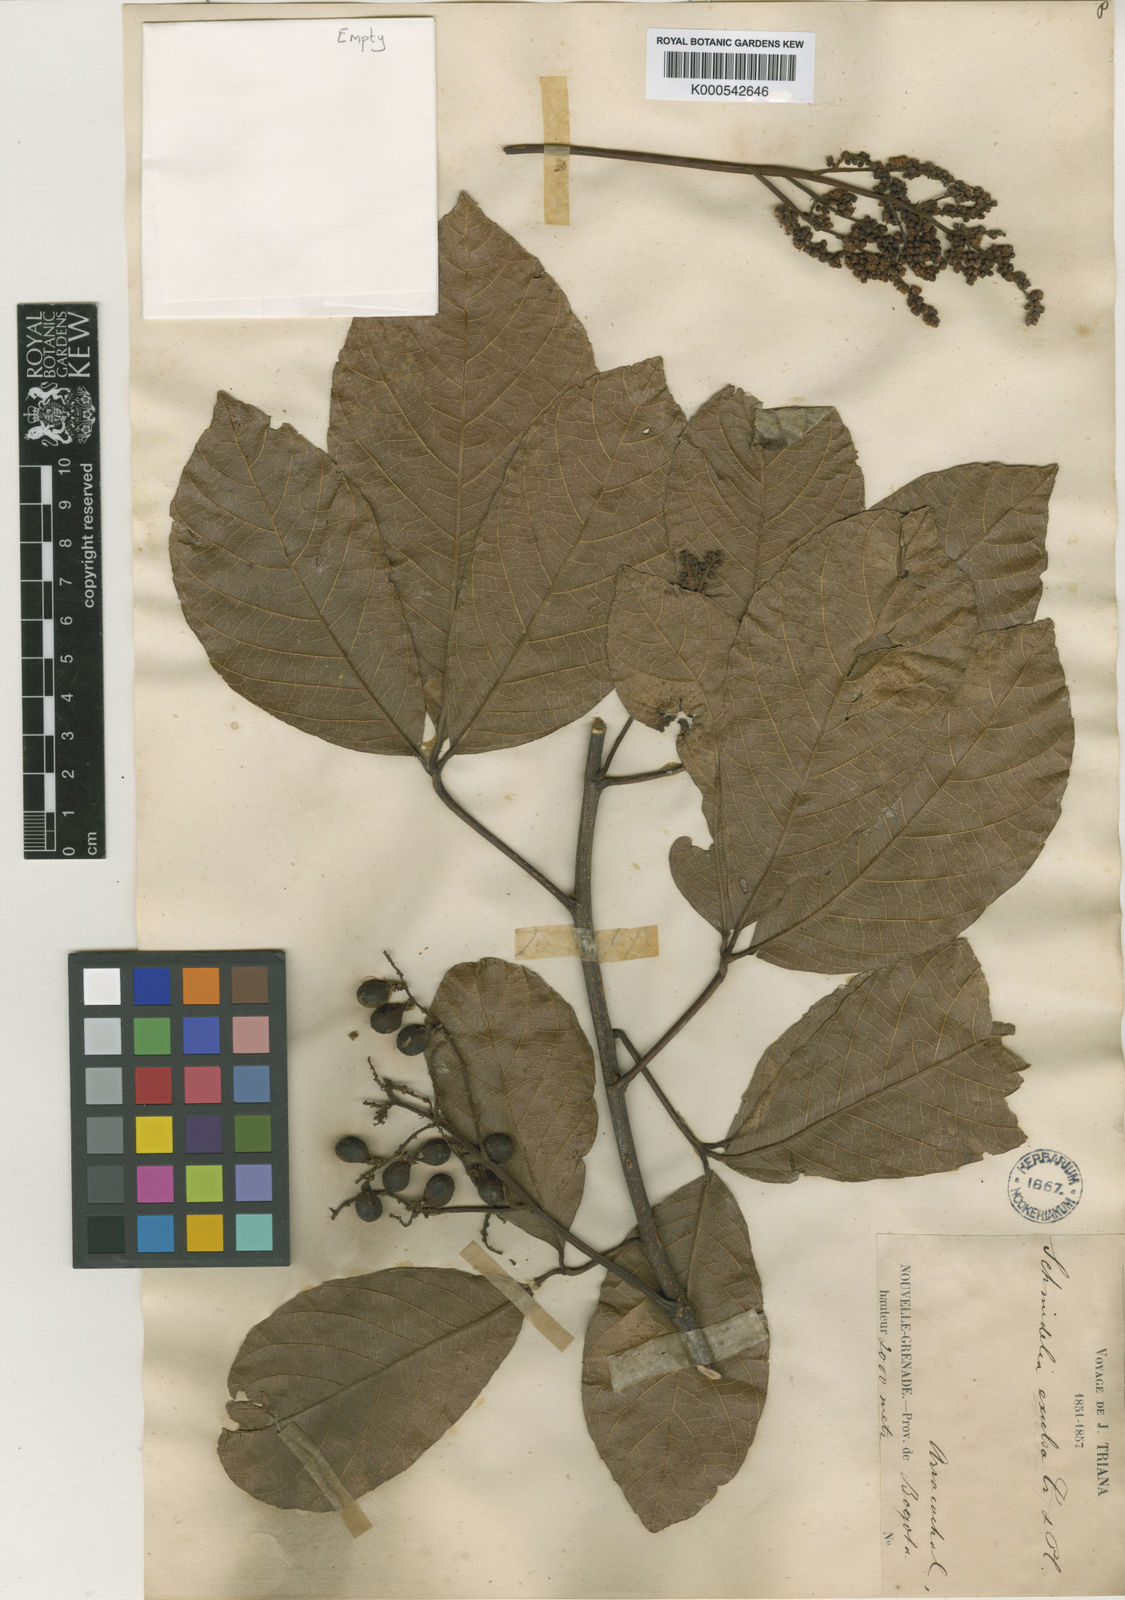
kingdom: Plantae
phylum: Tracheophyta
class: Magnoliopsida
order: Sapindales
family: Sapindaceae
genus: Allophylus
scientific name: Allophylus excelsus
